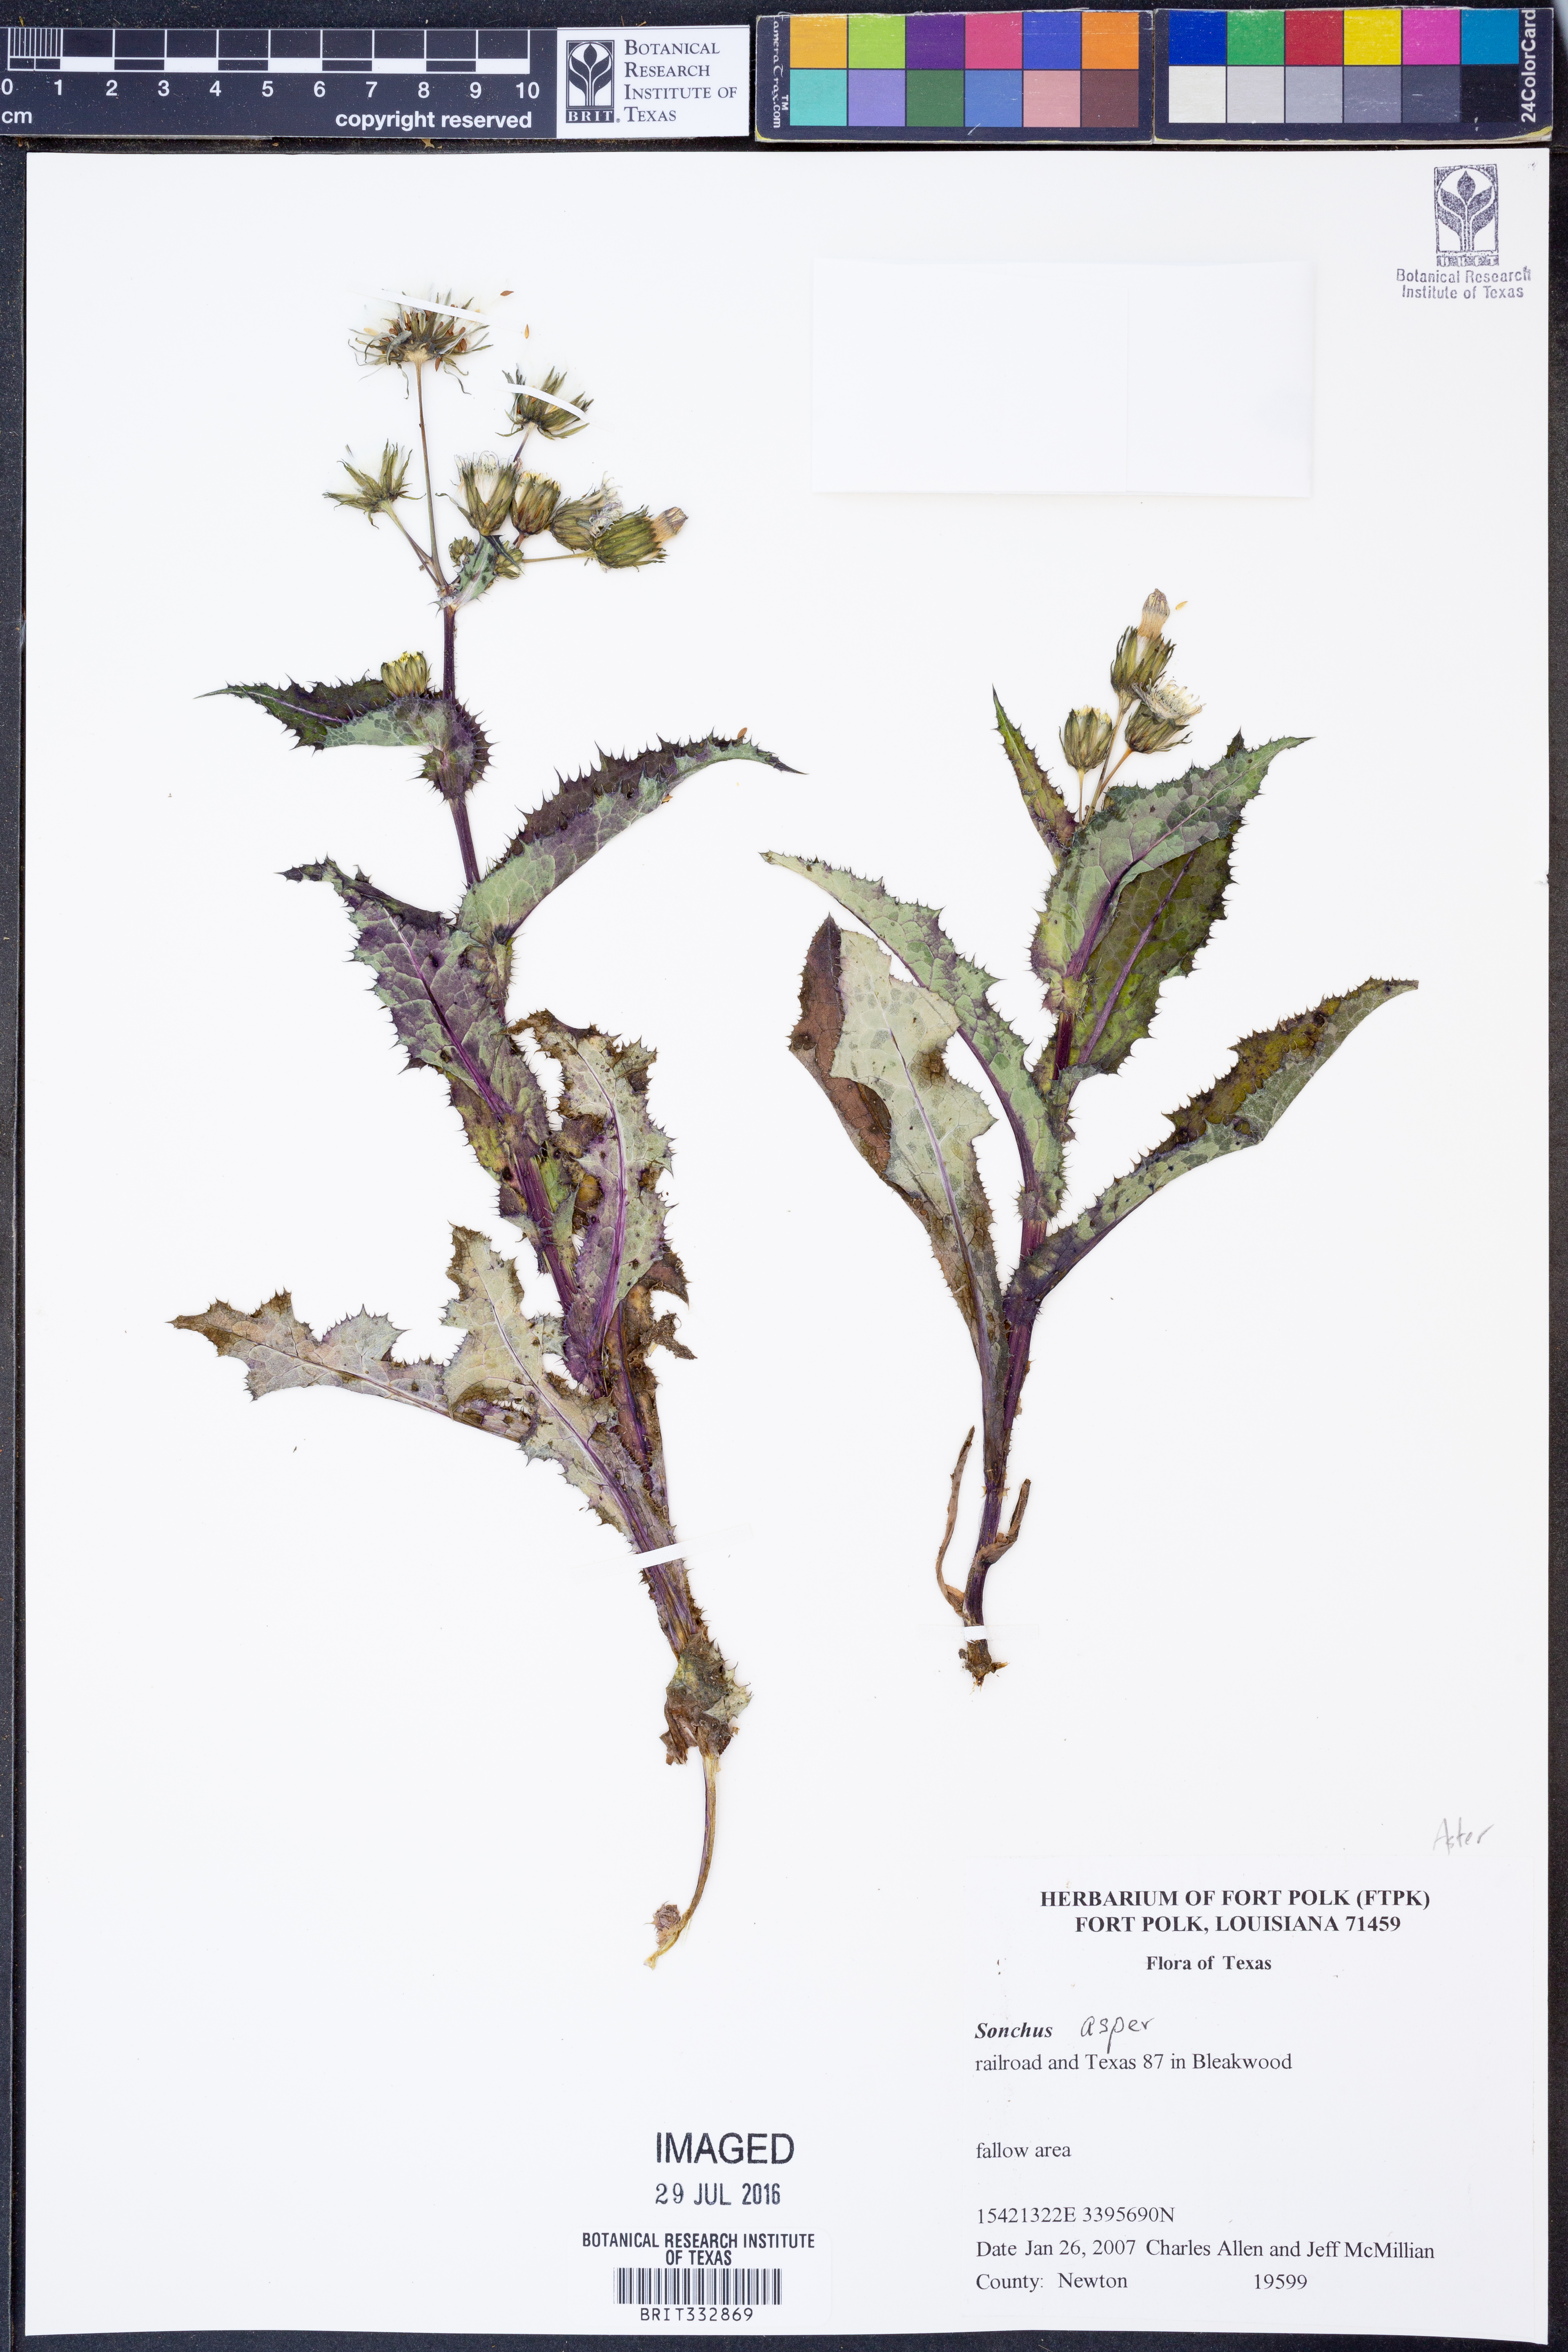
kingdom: Plantae
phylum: Tracheophyta
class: Magnoliopsida
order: Asterales
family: Asteraceae
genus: Sonchus
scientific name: Sonchus asper
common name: Prickly sow-thistle
